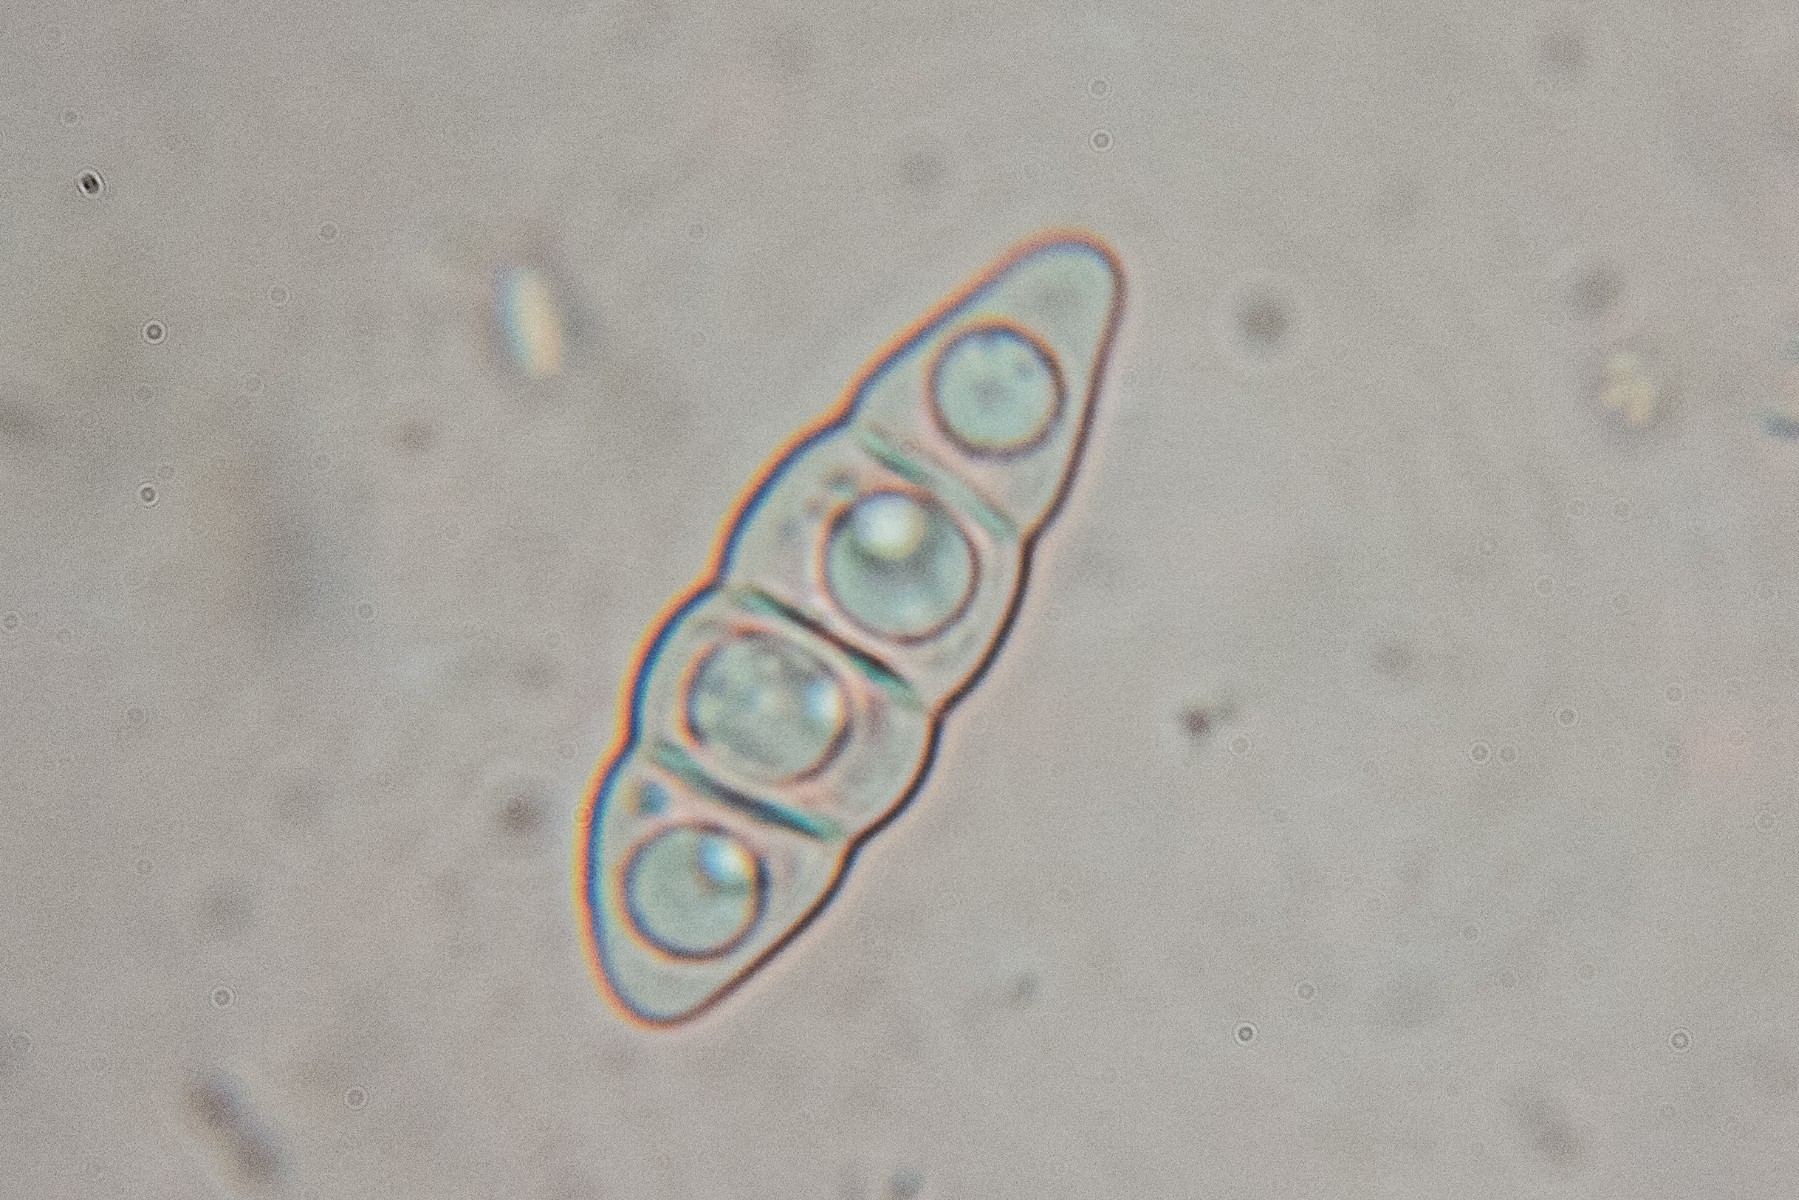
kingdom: Fungi
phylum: Ascomycota
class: Lecanoromycetes
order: Peltigerales
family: Collemataceae
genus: Enchylium
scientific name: Enchylium tenax
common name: tyk bævrelav
